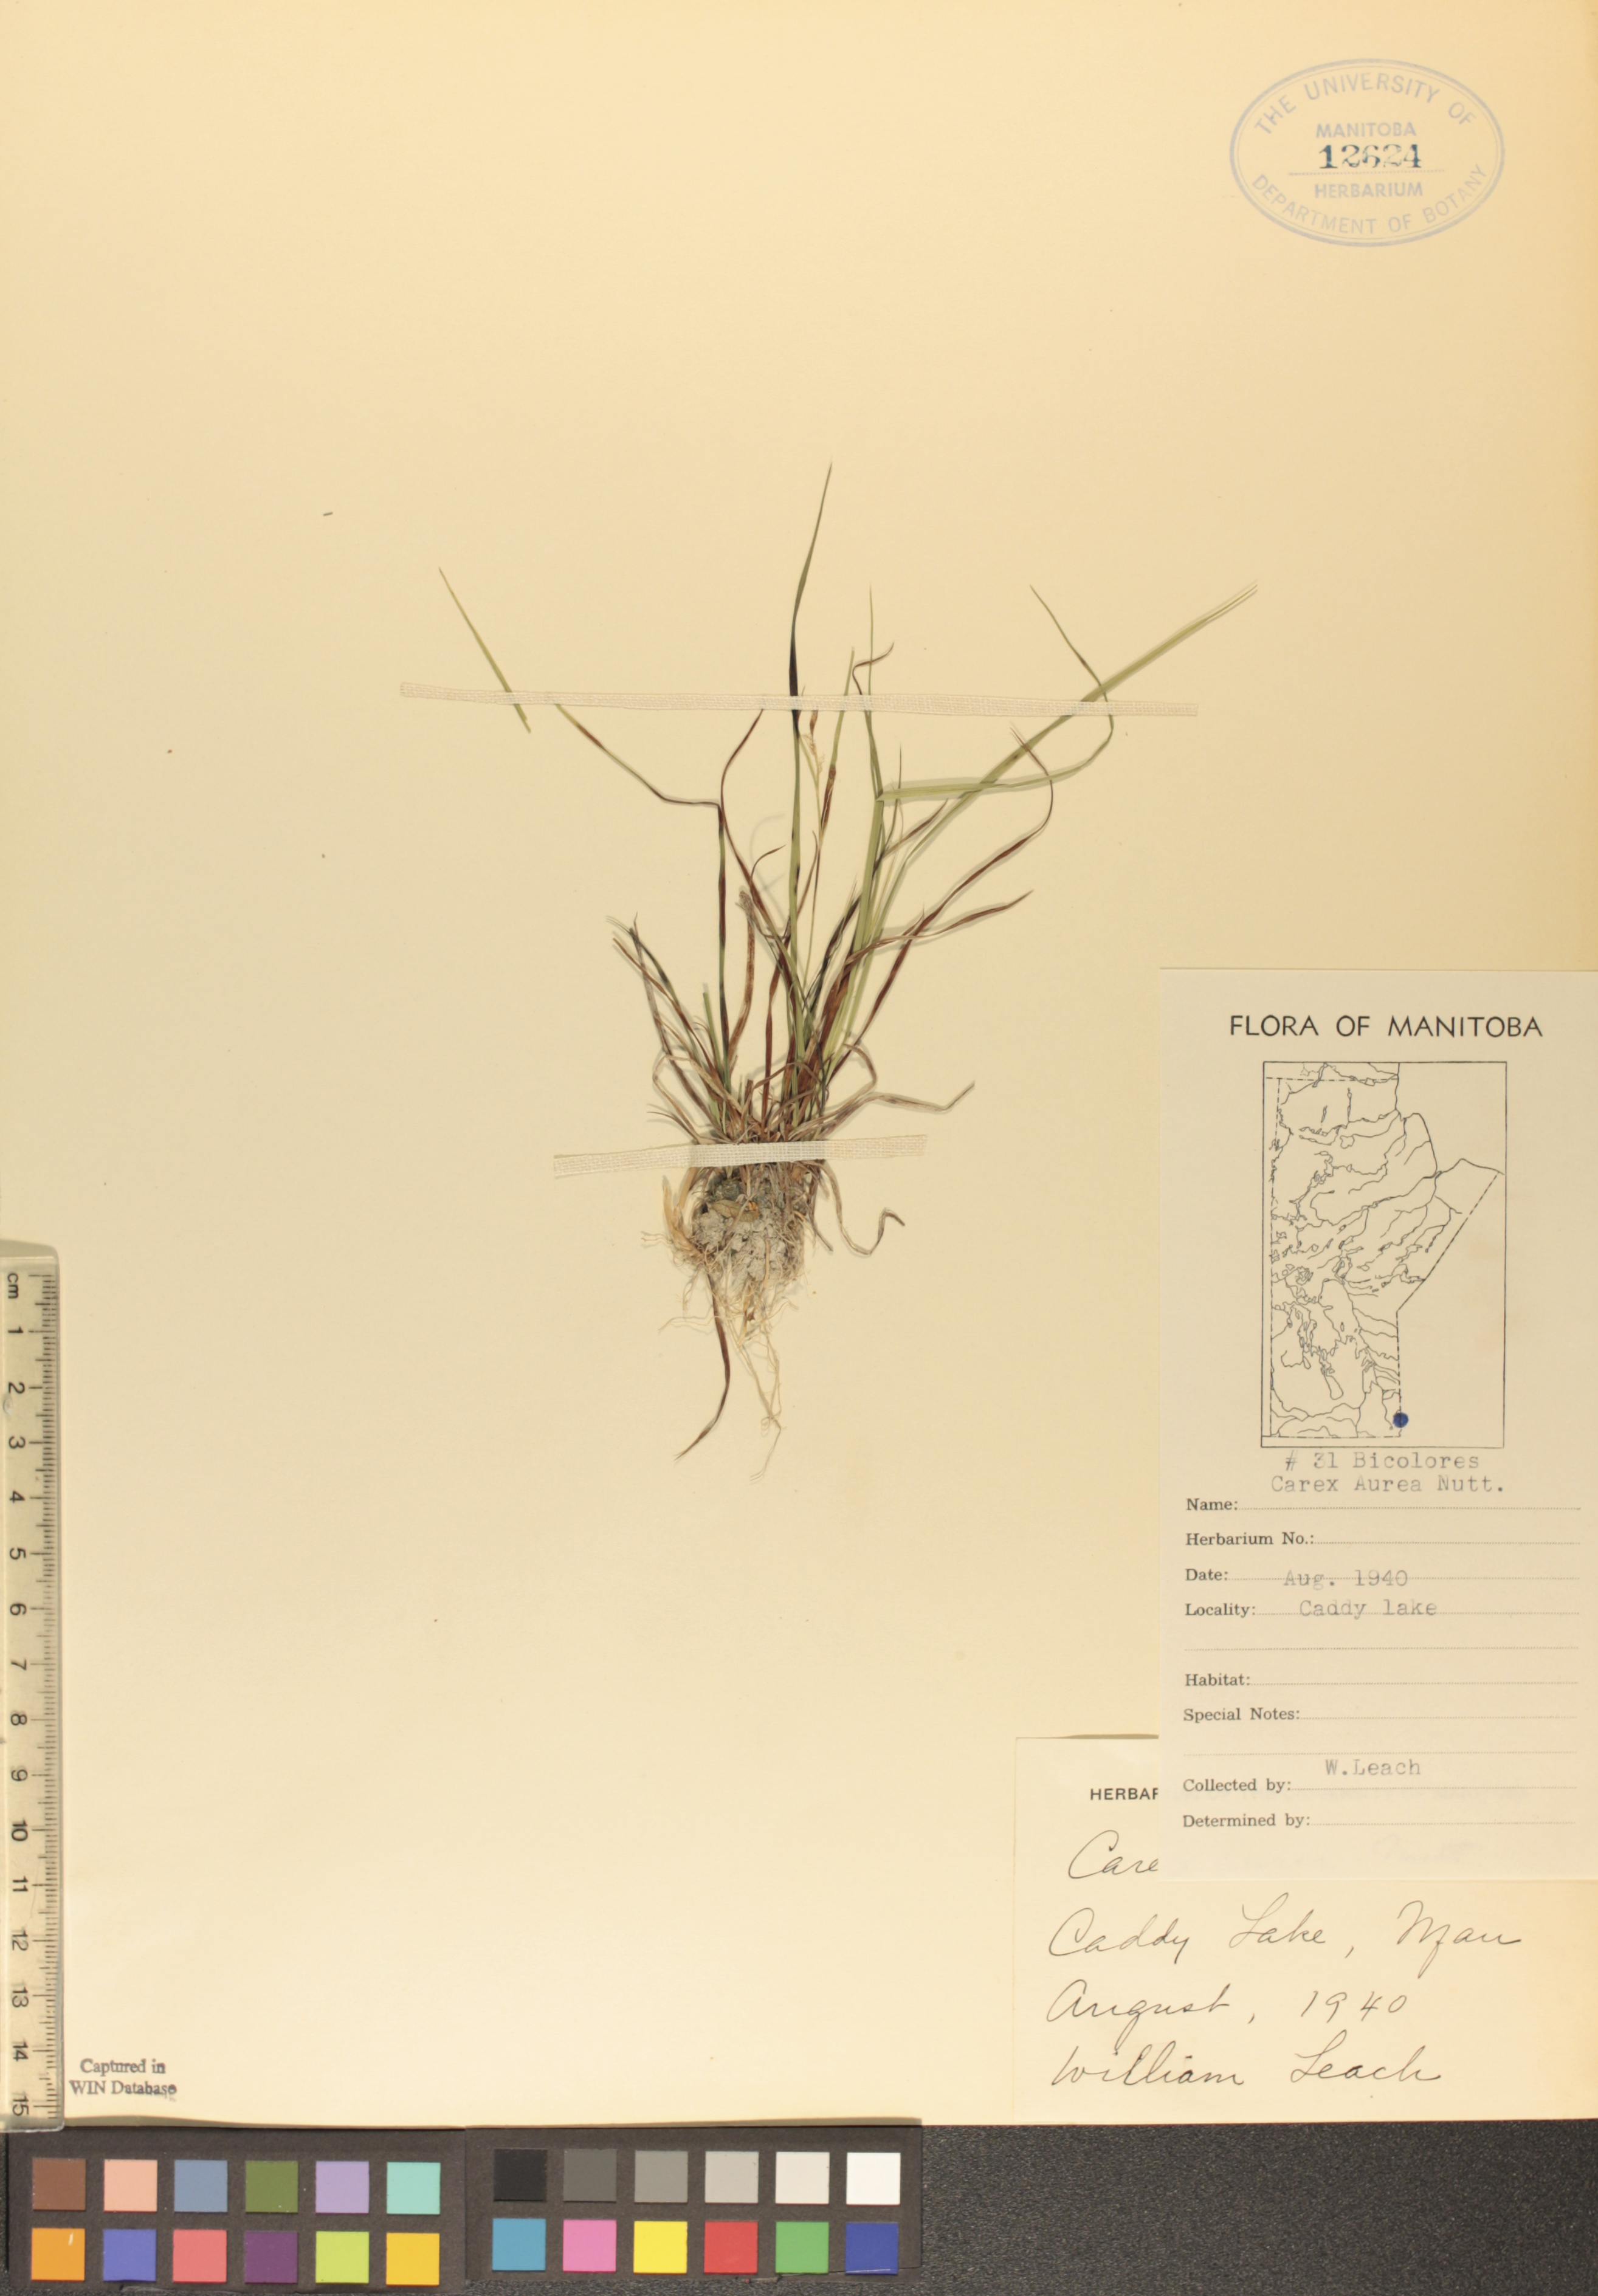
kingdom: Plantae
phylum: Tracheophyta
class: Liliopsida
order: Poales
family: Cyperaceae
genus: Carex
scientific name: Carex aurea
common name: Golden sedge
